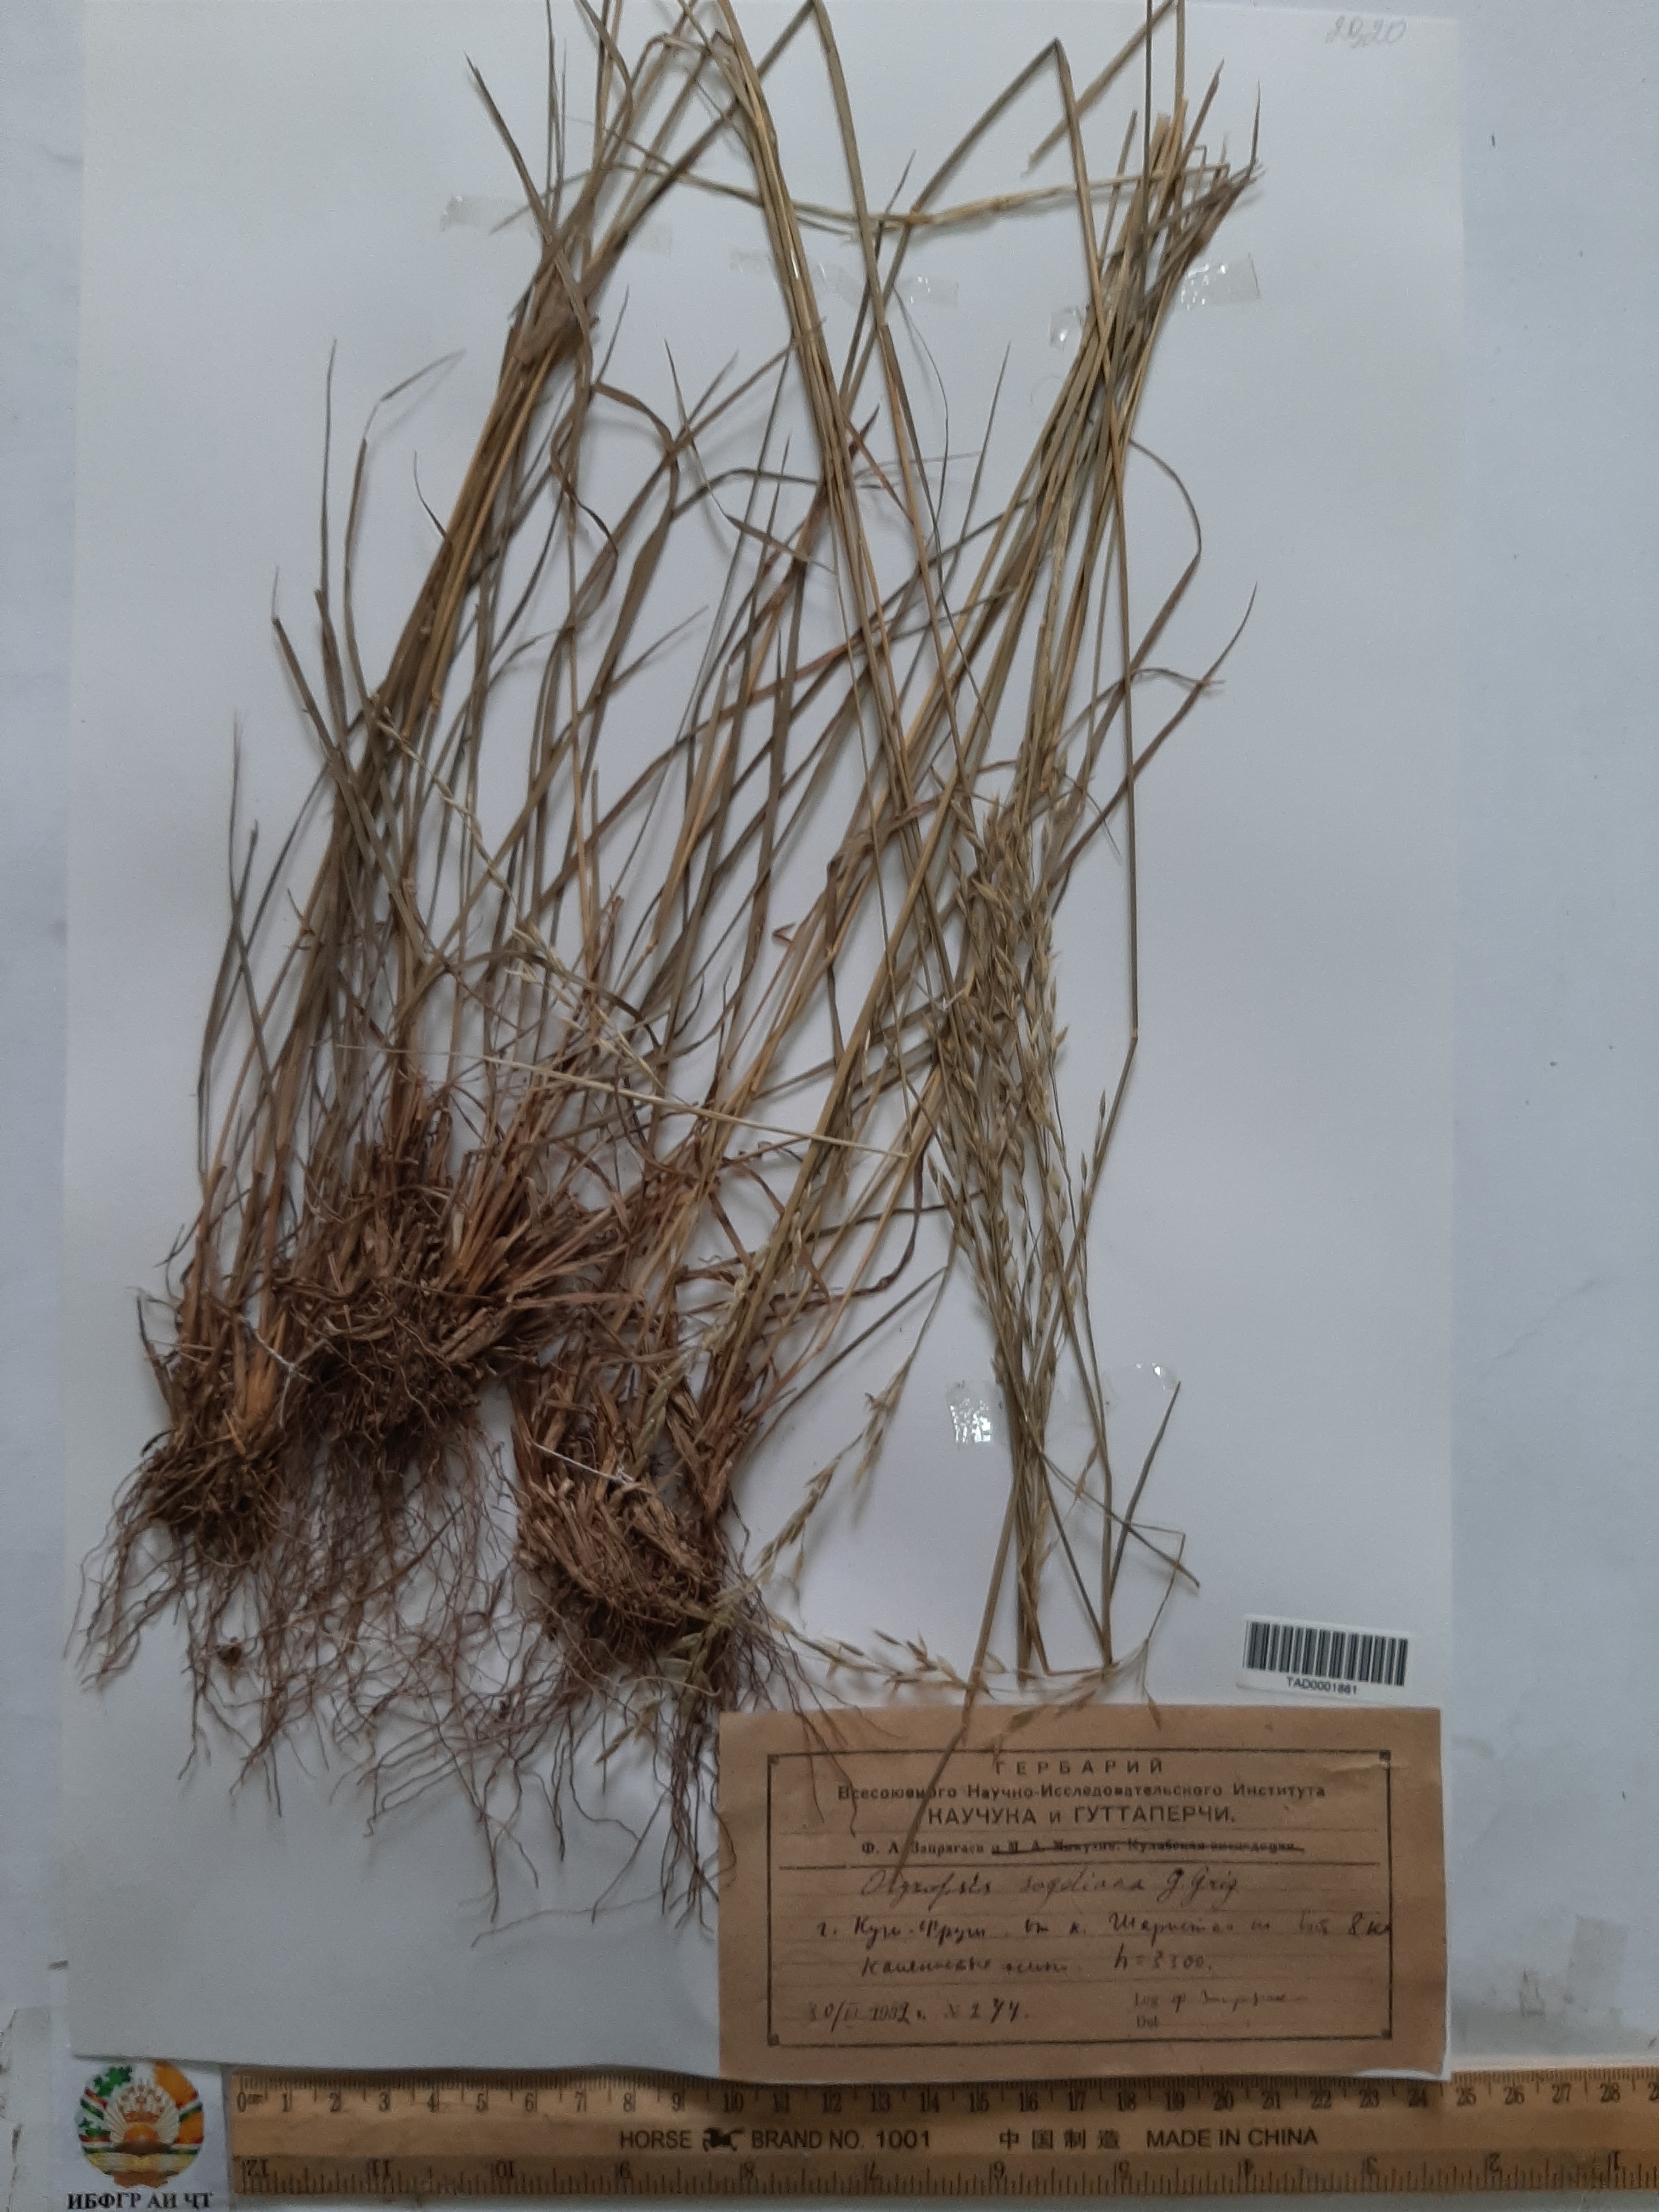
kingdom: Plantae
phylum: Tracheophyta
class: Liliopsida
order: Poales
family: Poaceae
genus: Piptatherum
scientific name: Piptatherum sogdianum
